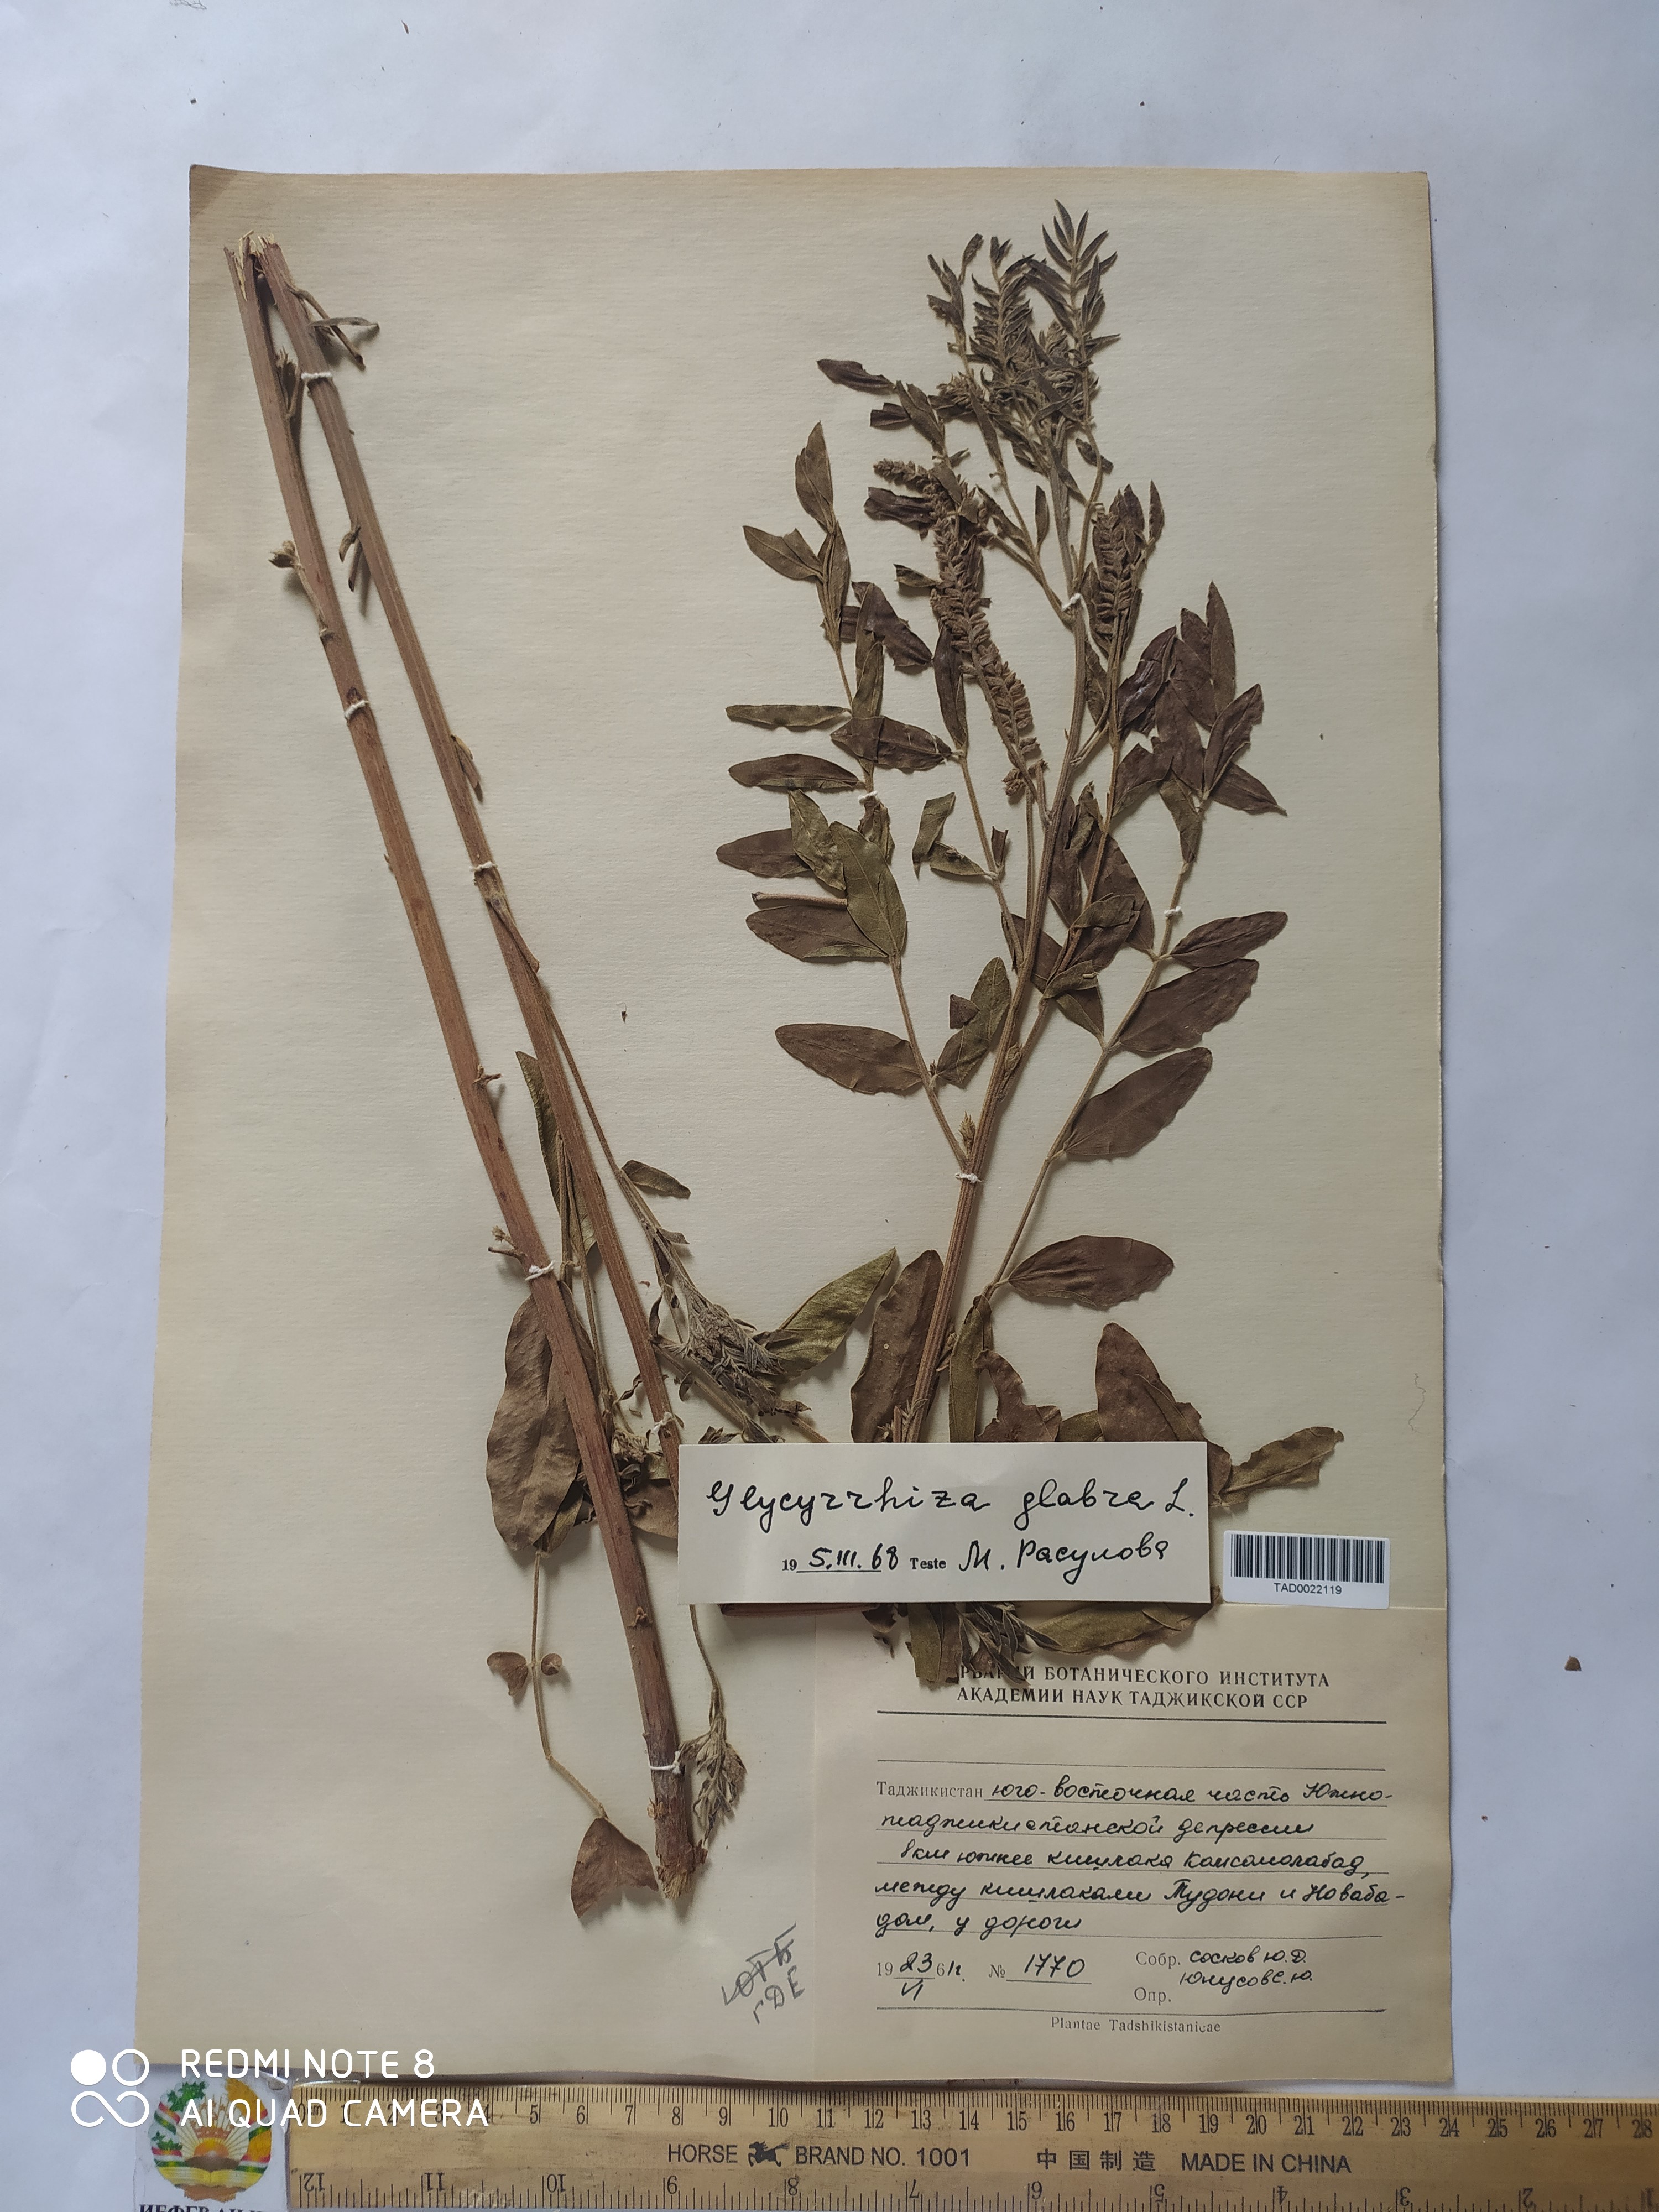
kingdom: Plantae
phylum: Tracheophyta
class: Magnoliopsida
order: Fabales
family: Fabaceae
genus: Glycyrrhiza
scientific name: Glycyrrhiza glabra
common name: Liquorice
